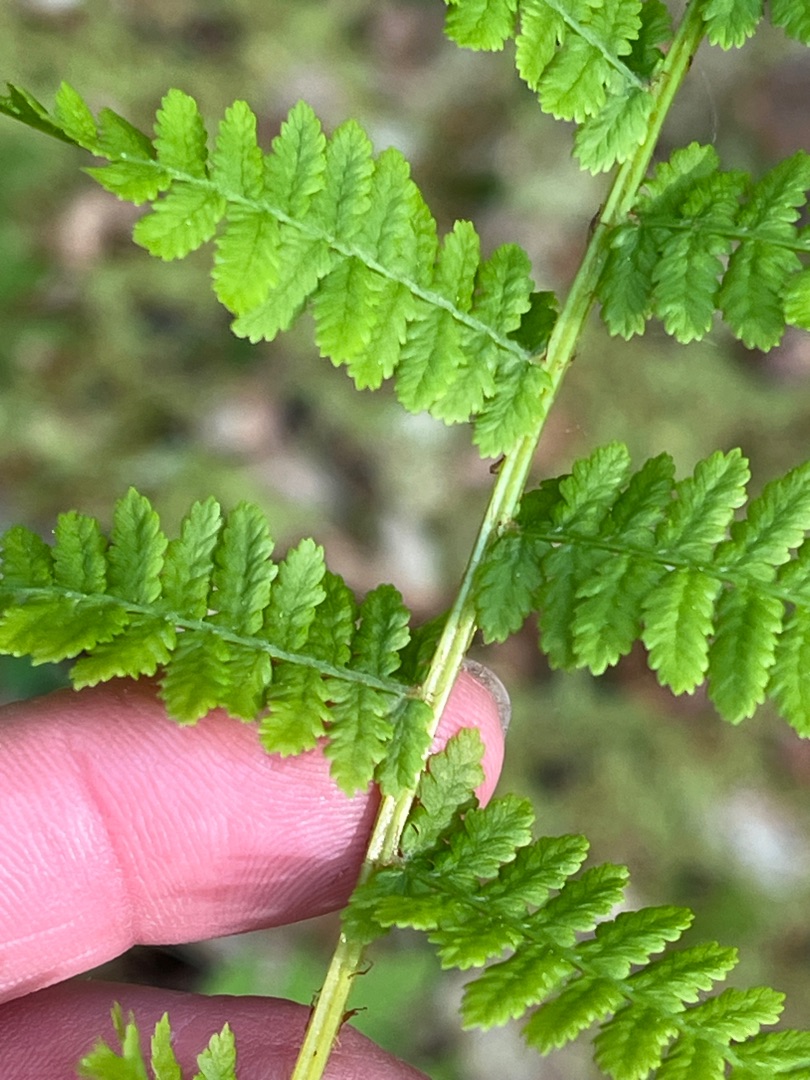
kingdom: Plantae
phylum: Tracheophyta
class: Polypodiopsida
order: Polypodiales
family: Athyriaceae
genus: Athyrium
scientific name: Athyrium filix-femina
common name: Fjerbregne
